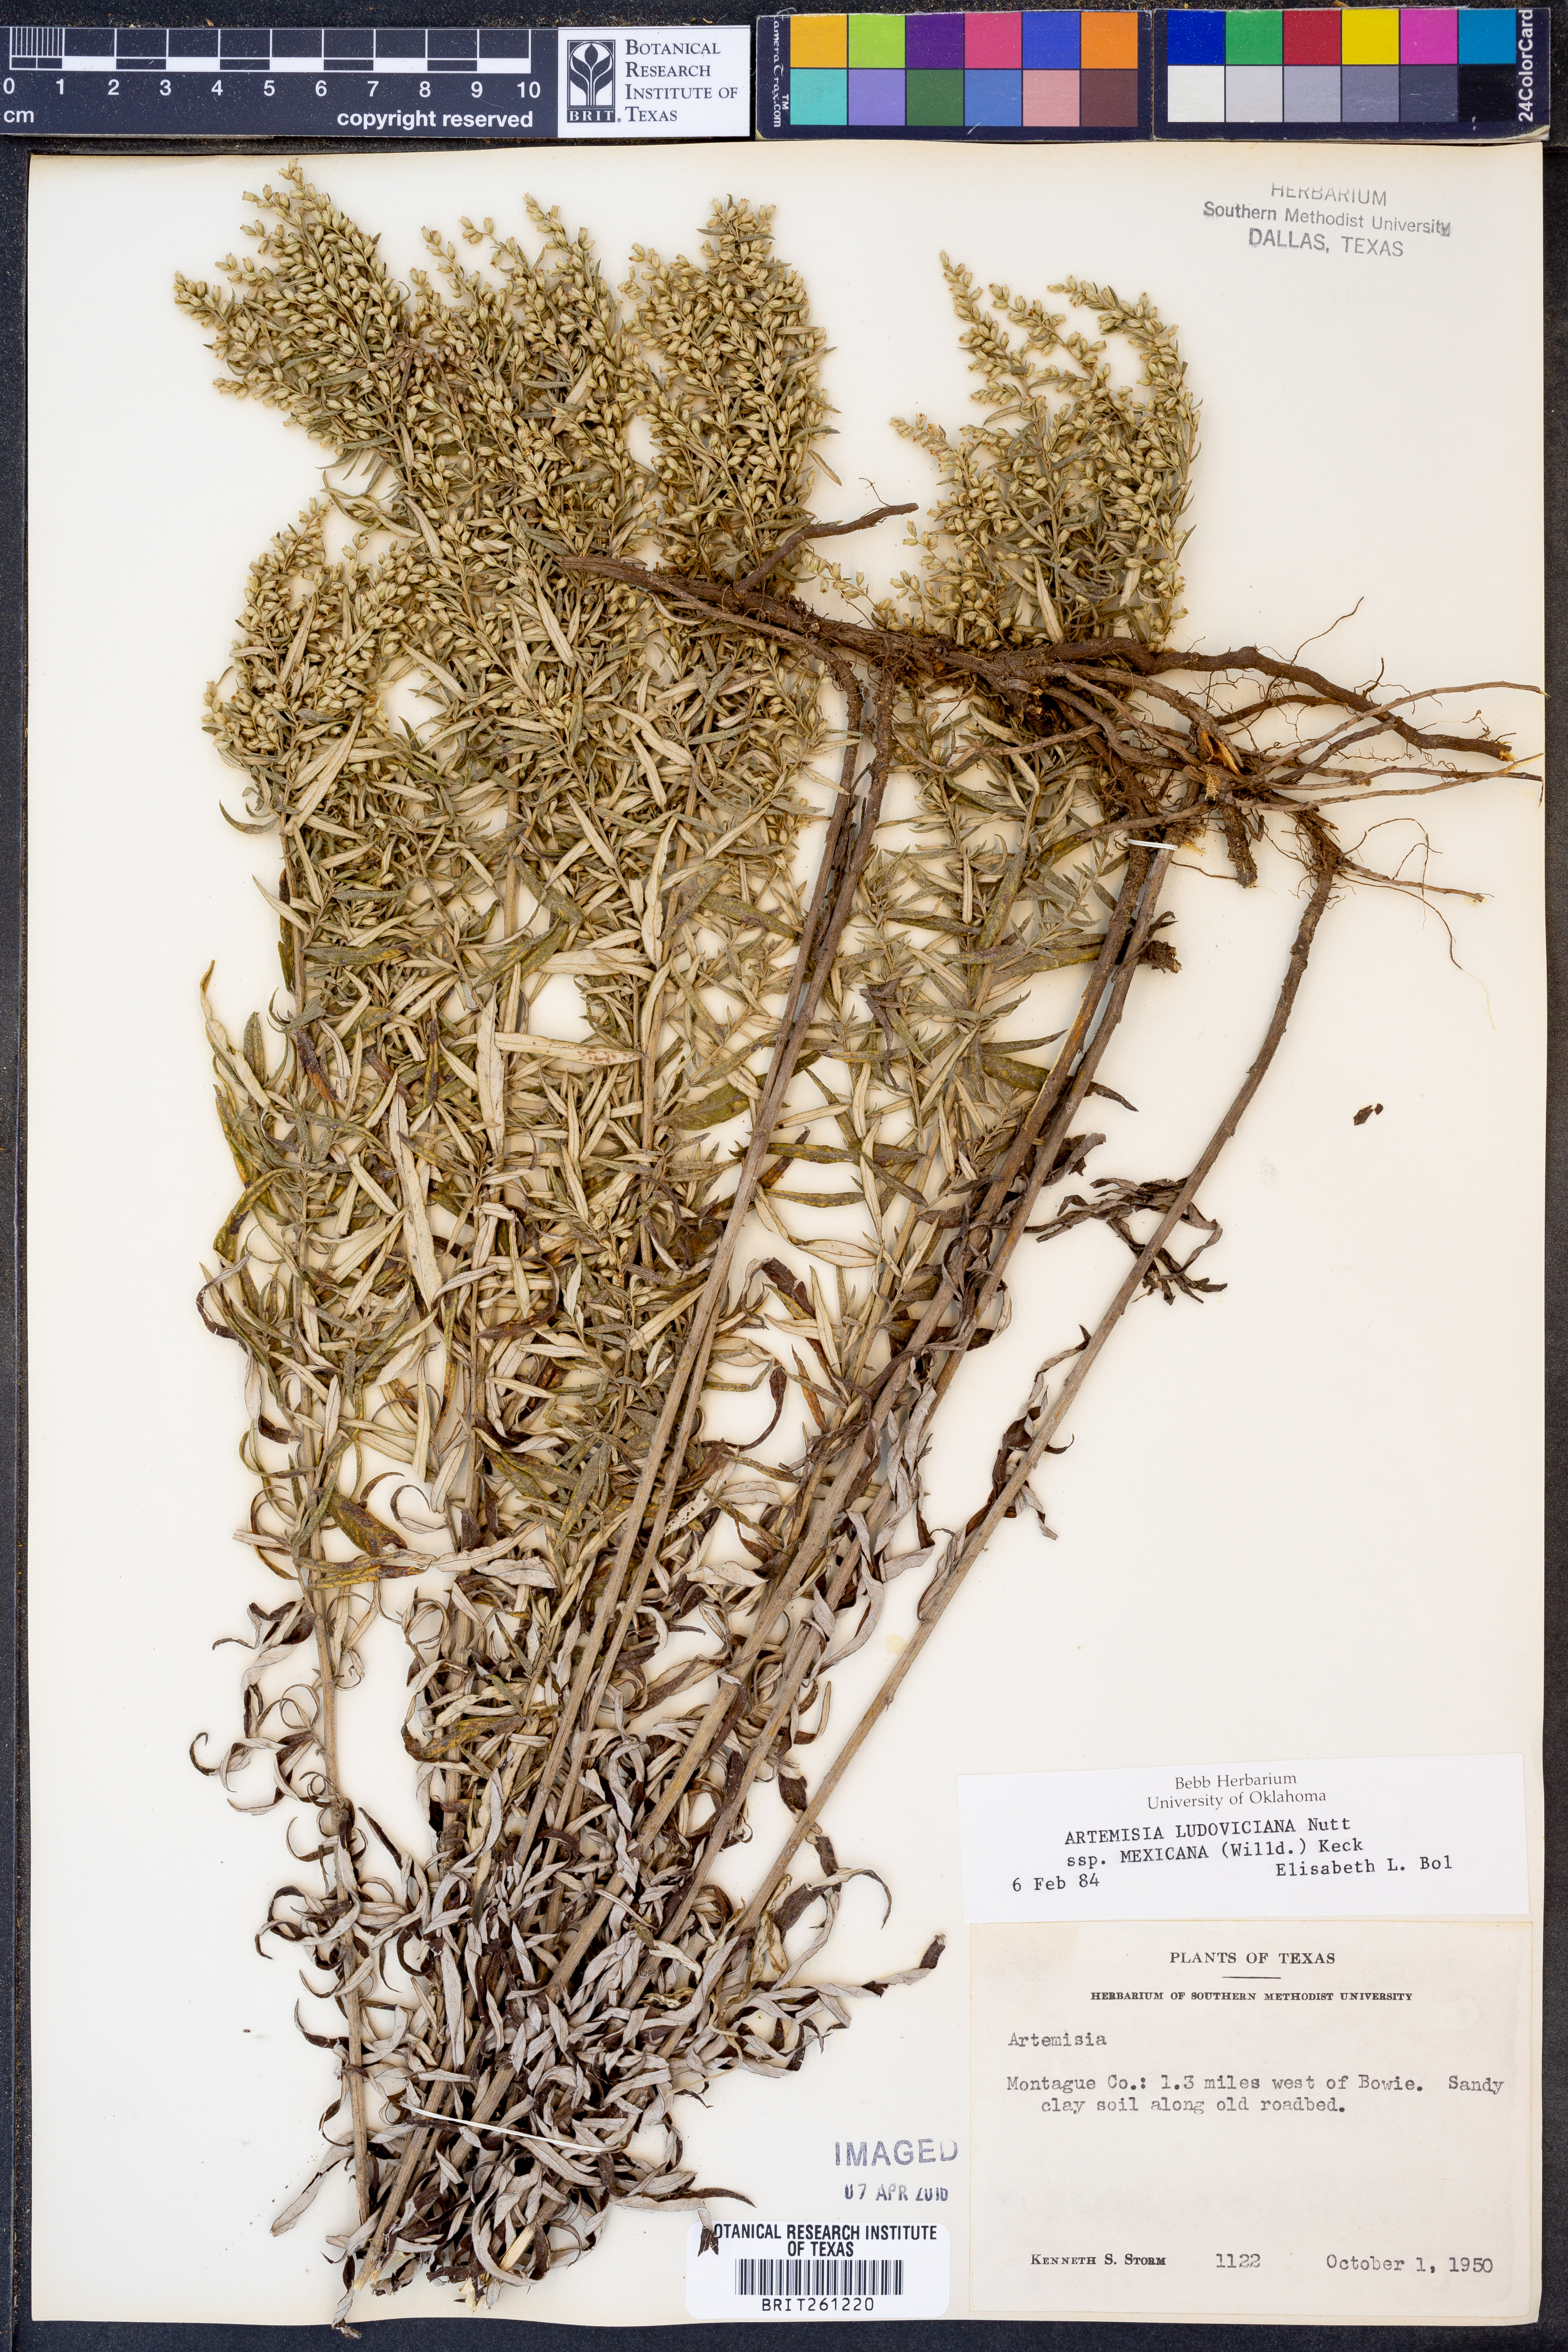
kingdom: Plantae
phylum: Tracheophyta
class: Magnoliopsida
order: Asterales
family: Asteraceae
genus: Artemisia
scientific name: Artemisia ludoviciana
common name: Western mugwort
